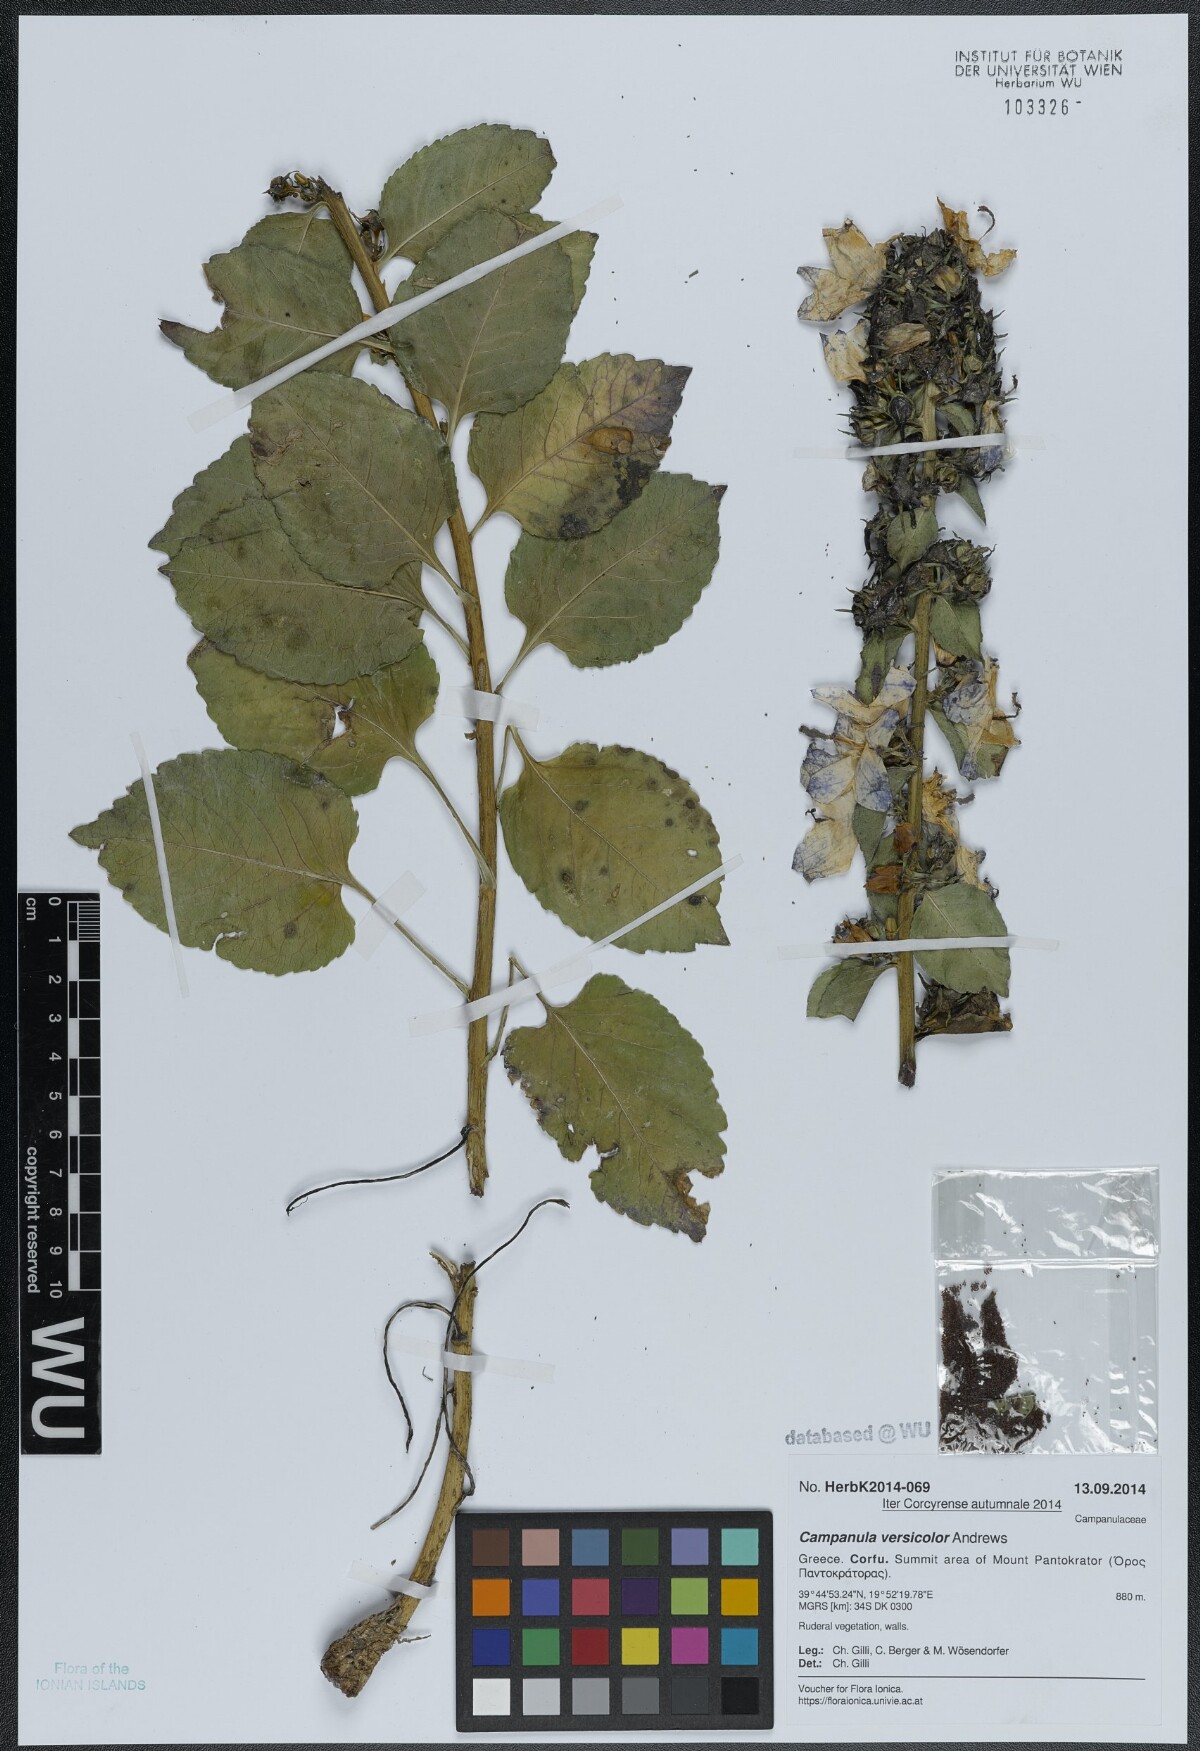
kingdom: Plantae
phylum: Tracheophyta
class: Magnoliopsida
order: Asterales
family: Campanulaceae
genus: Campanula
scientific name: Campanula versicolor
